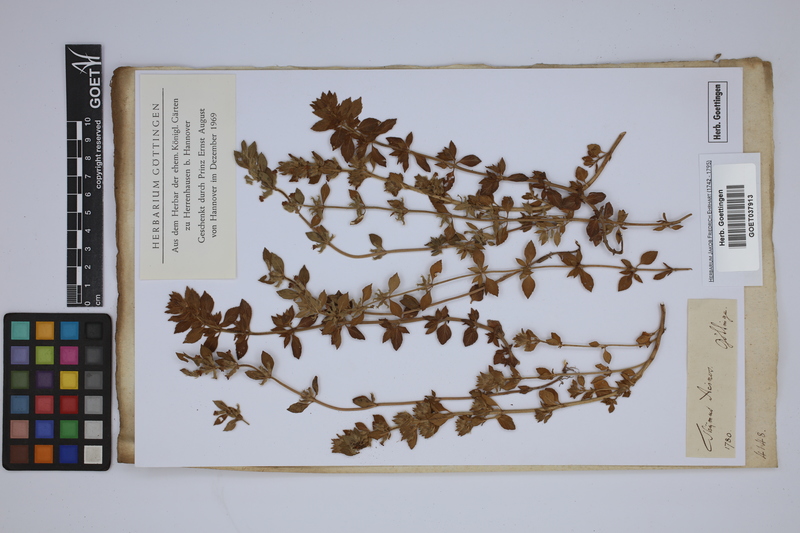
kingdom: Plantae
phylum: Tracheophyta
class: Magnoliopsida
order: Lamiales
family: Lamiaceae
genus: Clinopodium
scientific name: Clinopodium acinos
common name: Basil thyme
